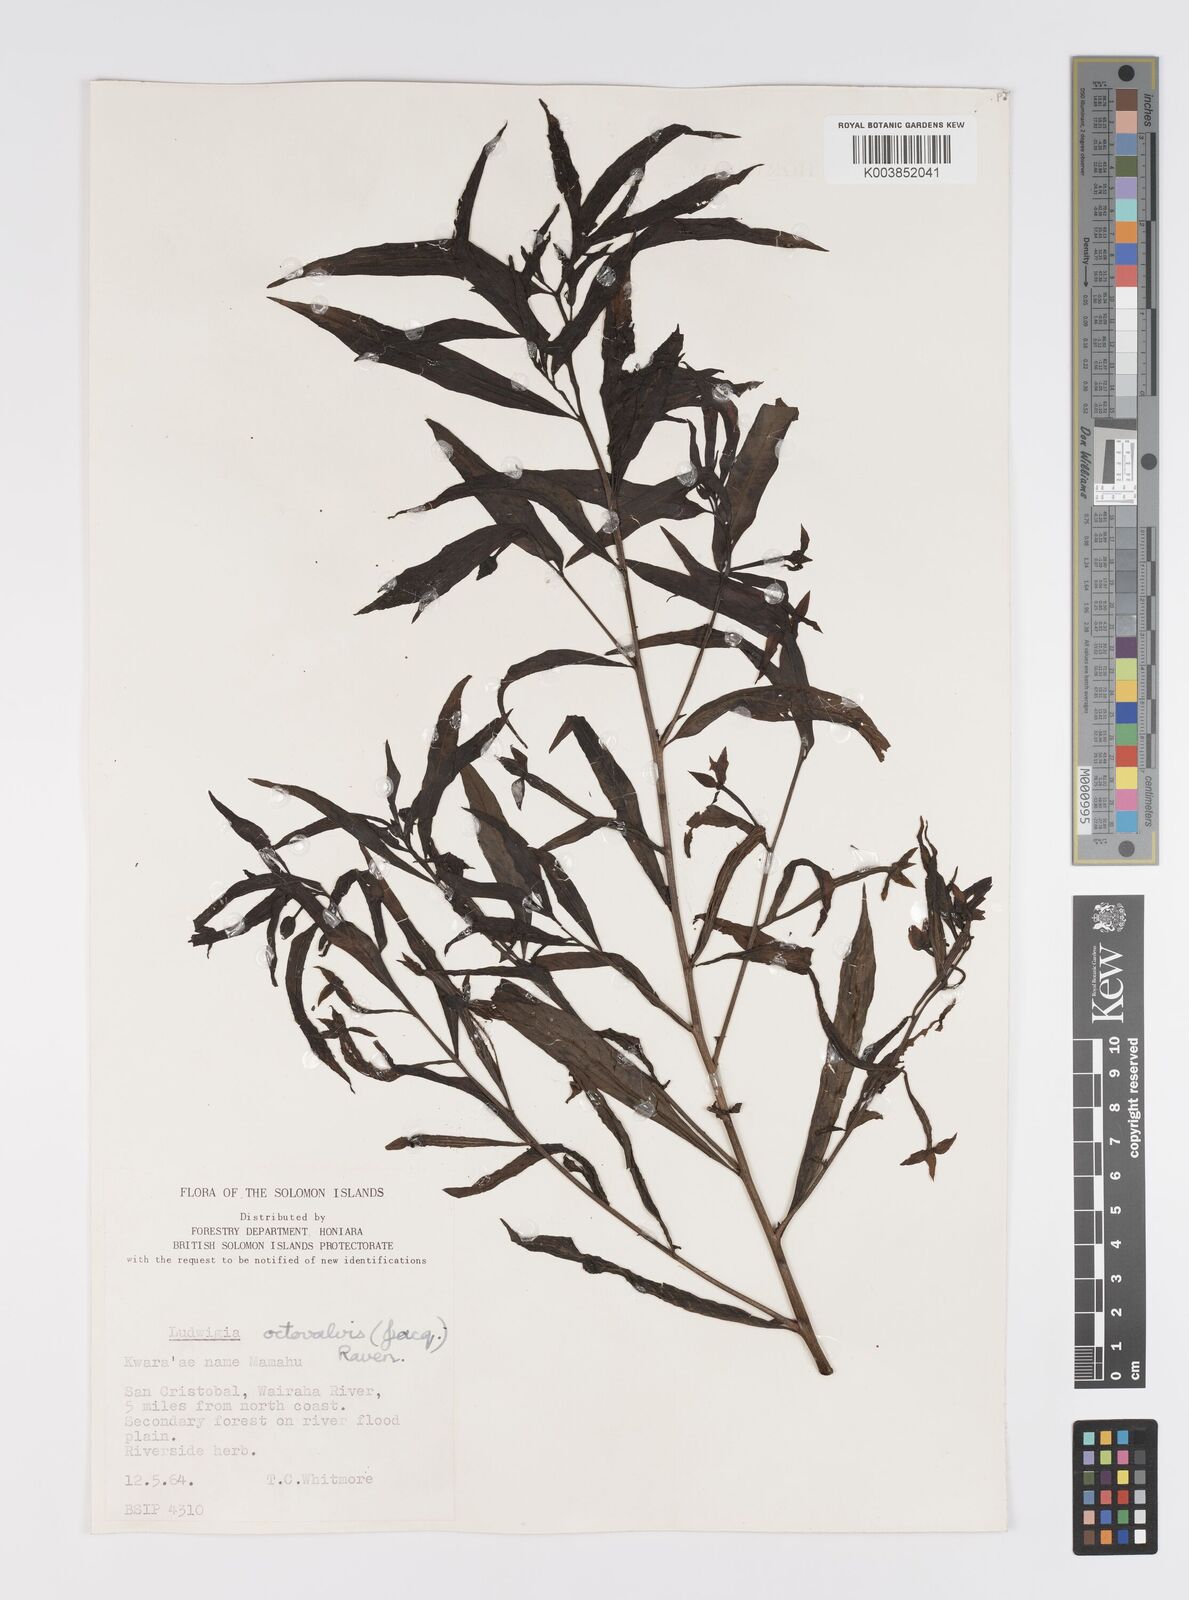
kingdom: Plantae
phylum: Tracheophyta
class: Magnoliopsida
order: Myrtales
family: Onagraceae
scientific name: Onagraceae
